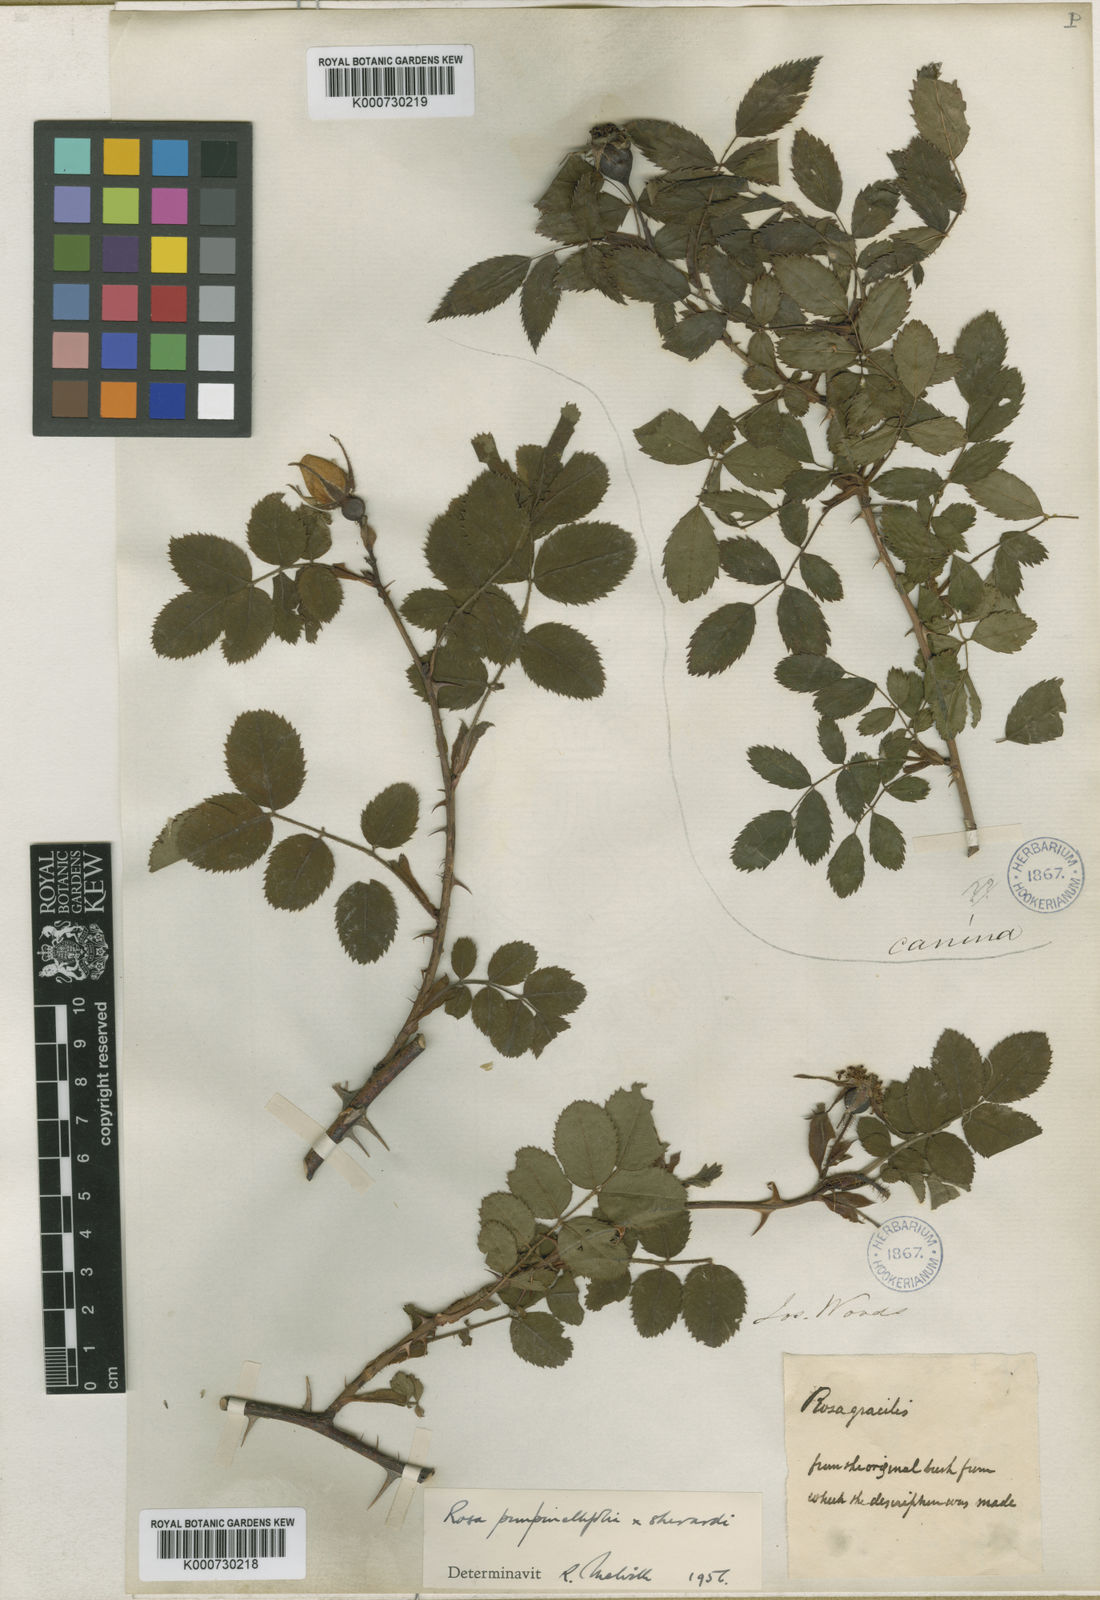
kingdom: Plantae
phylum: Tracheophyta
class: Magnoliopsida
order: Rosales
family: Rosaceae
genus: Rosa
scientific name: Rosa involuta
